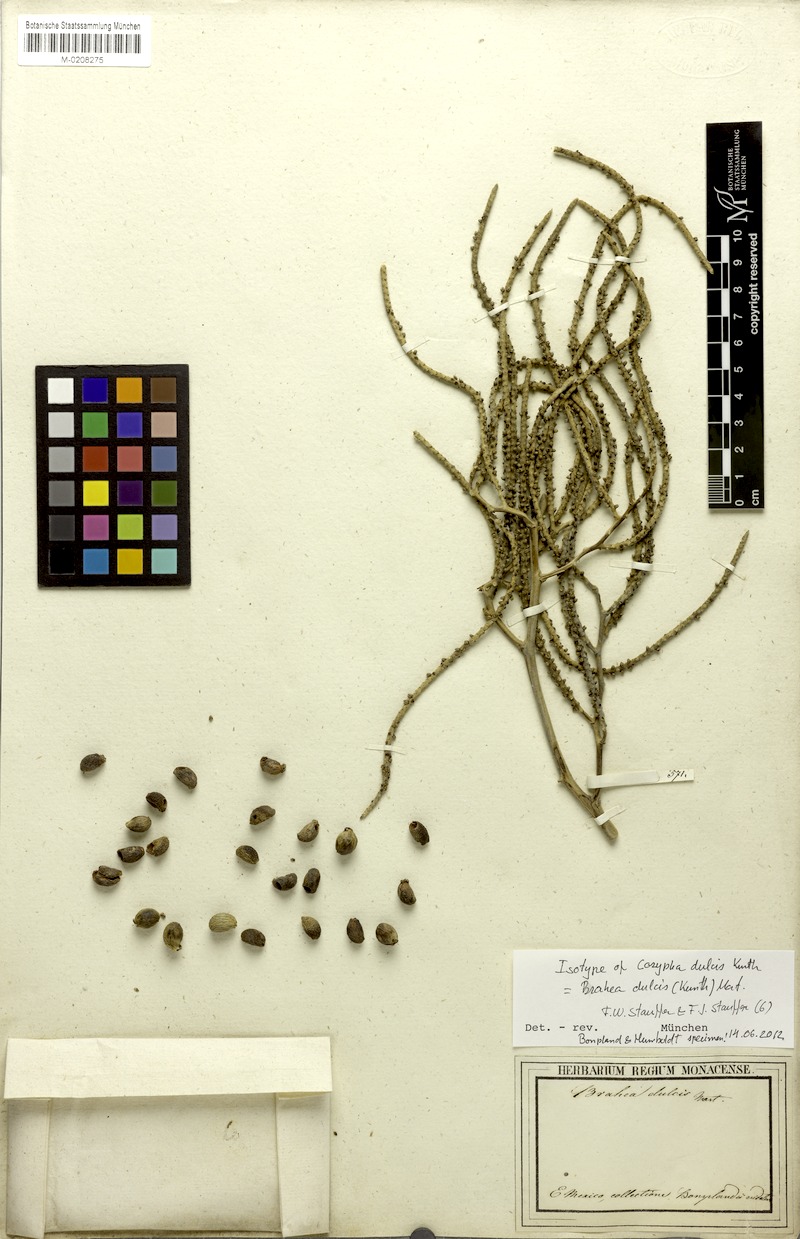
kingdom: Plantae
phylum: Tracheophyta
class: Liliopsida
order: Arecales
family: Arecaceae
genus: Brahea
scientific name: Brahea dulcis
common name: Apak palm
